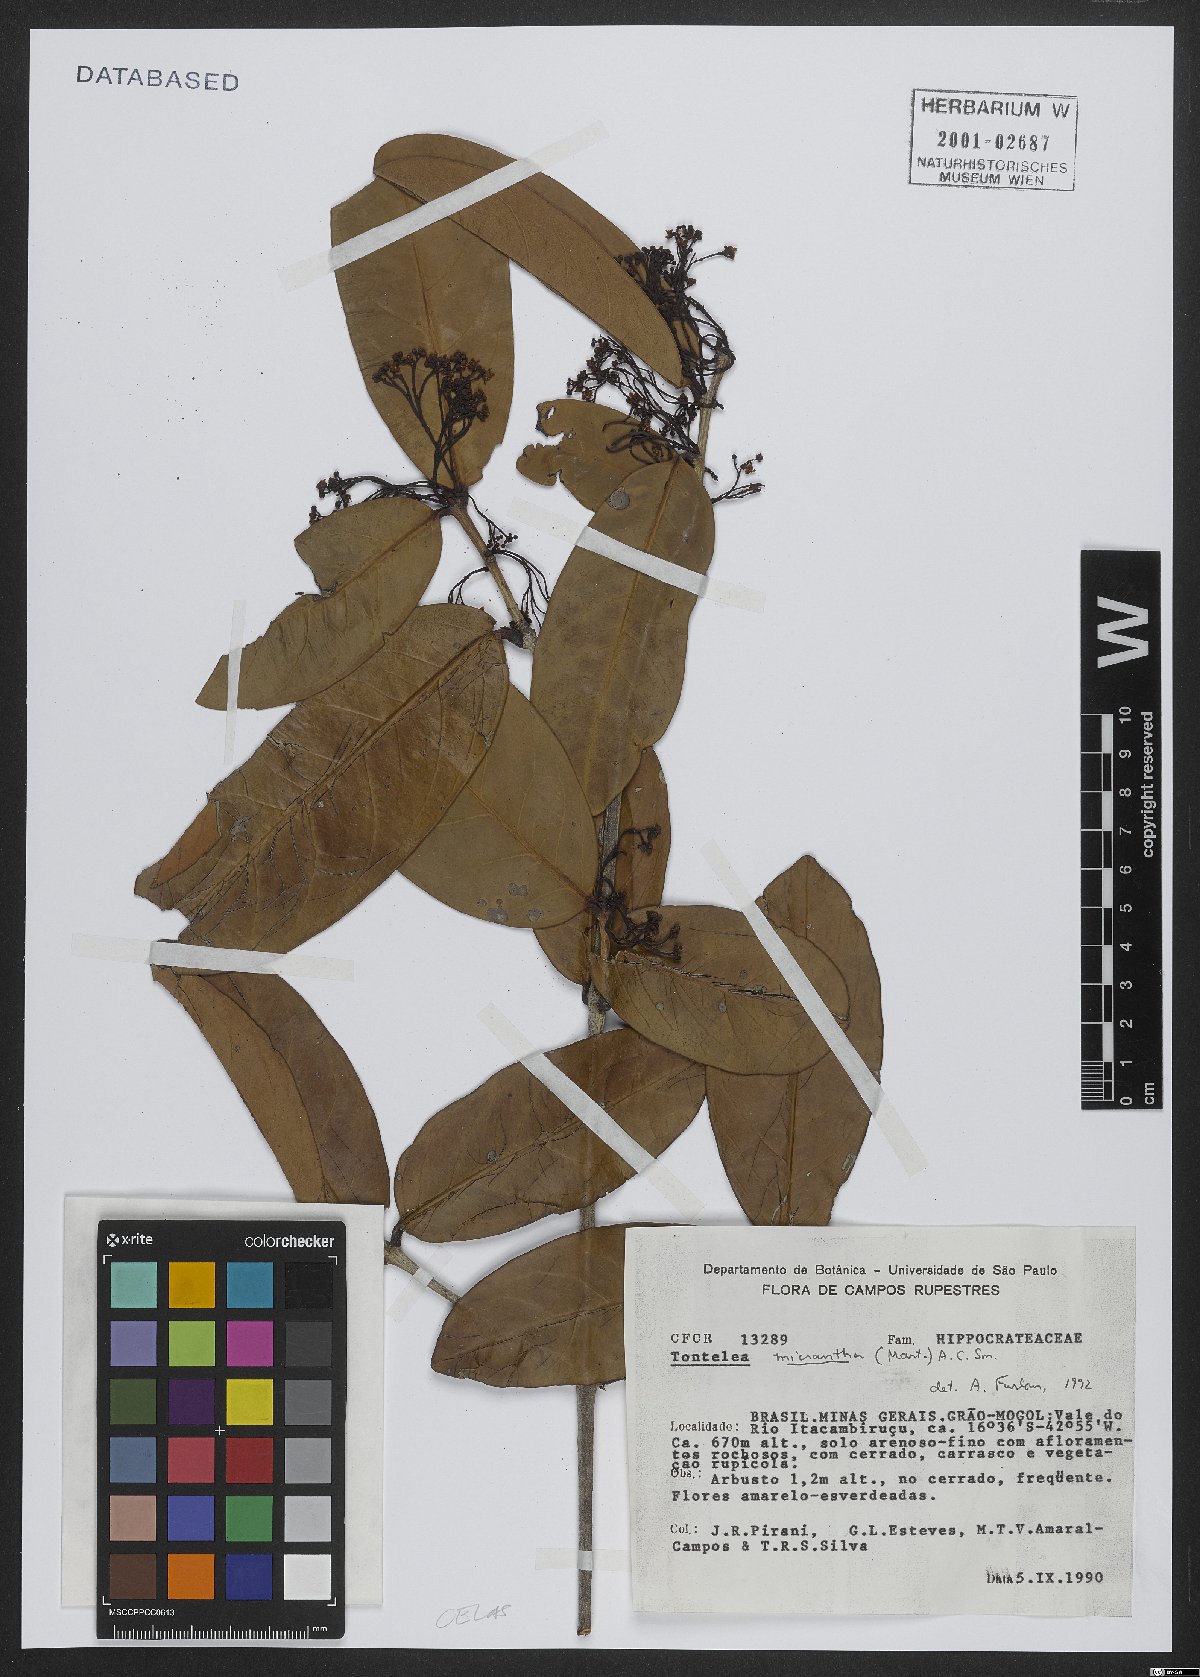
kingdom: Plantae
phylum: Tracheophyta
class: Magnoliopsida
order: Celastrales
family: Celastraceae
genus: Tontelea
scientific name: Tontelea micrantha
